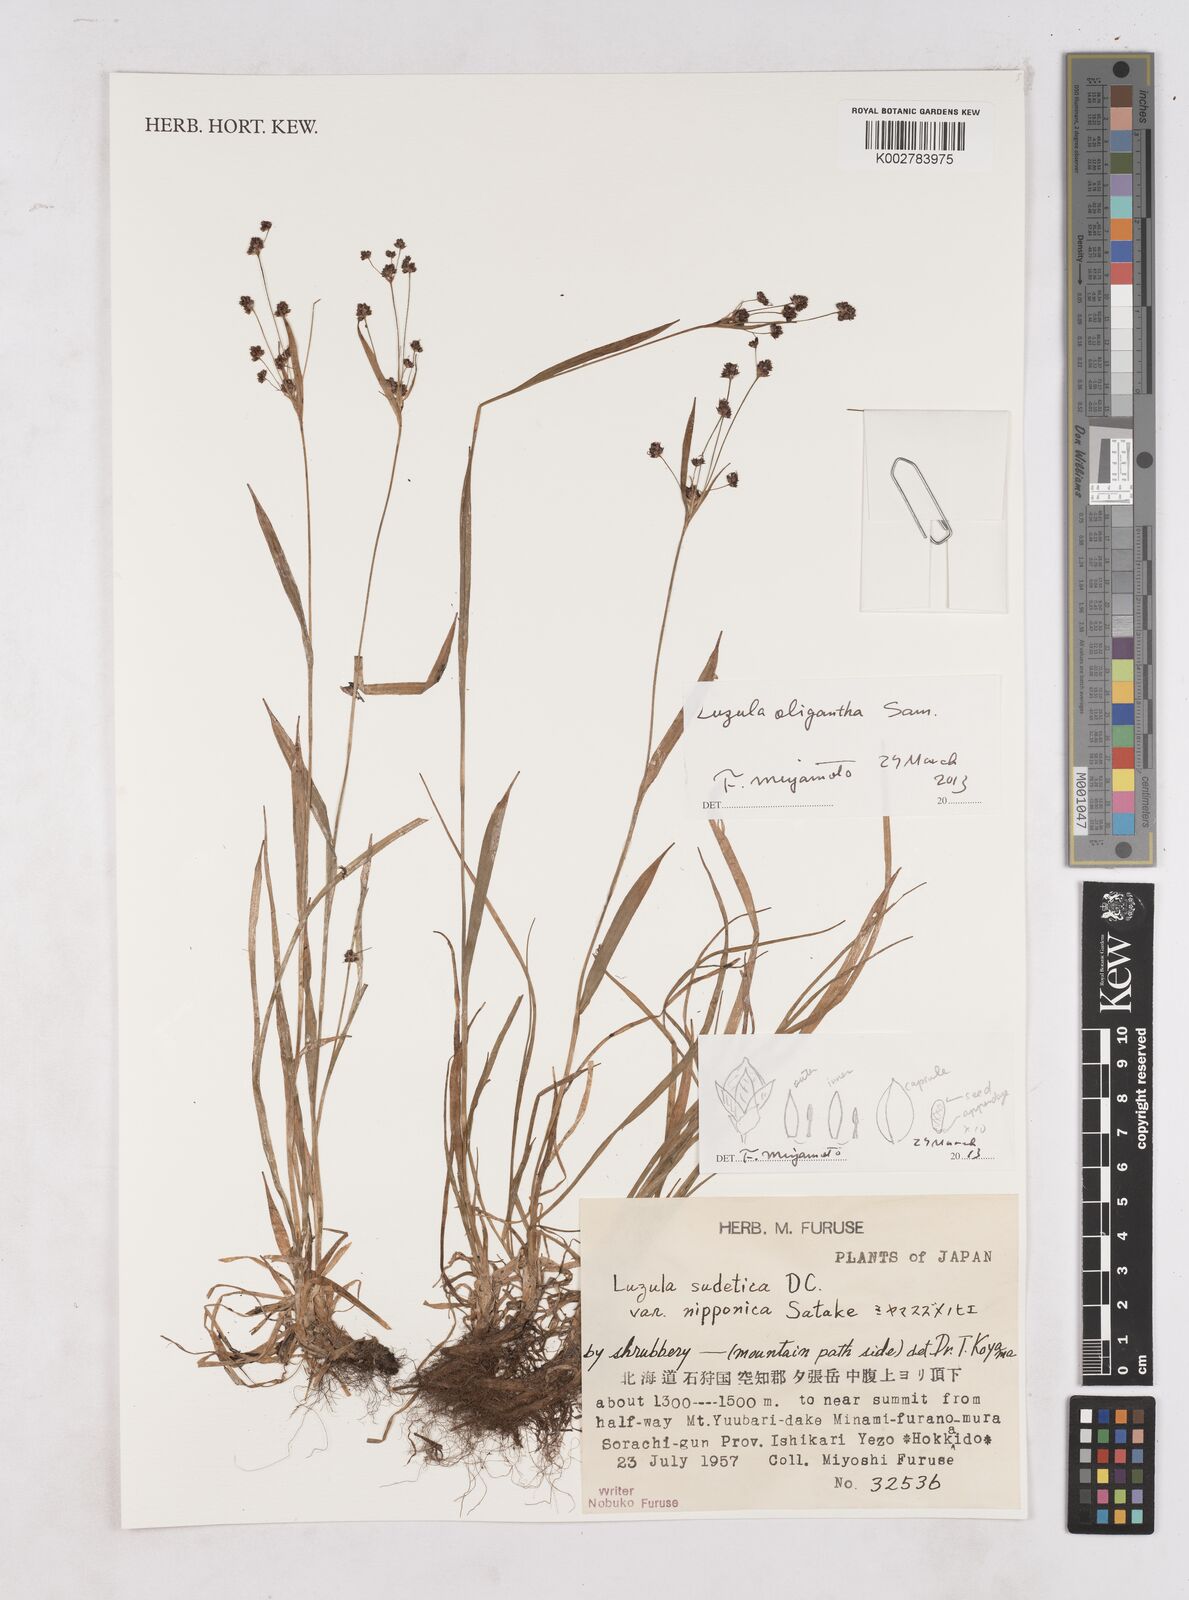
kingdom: Plantae
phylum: Tracheophyta
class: Liliopsida
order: Poales
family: Juncaceae
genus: Luzula
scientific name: Luzula campestris
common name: Field wood-rush
